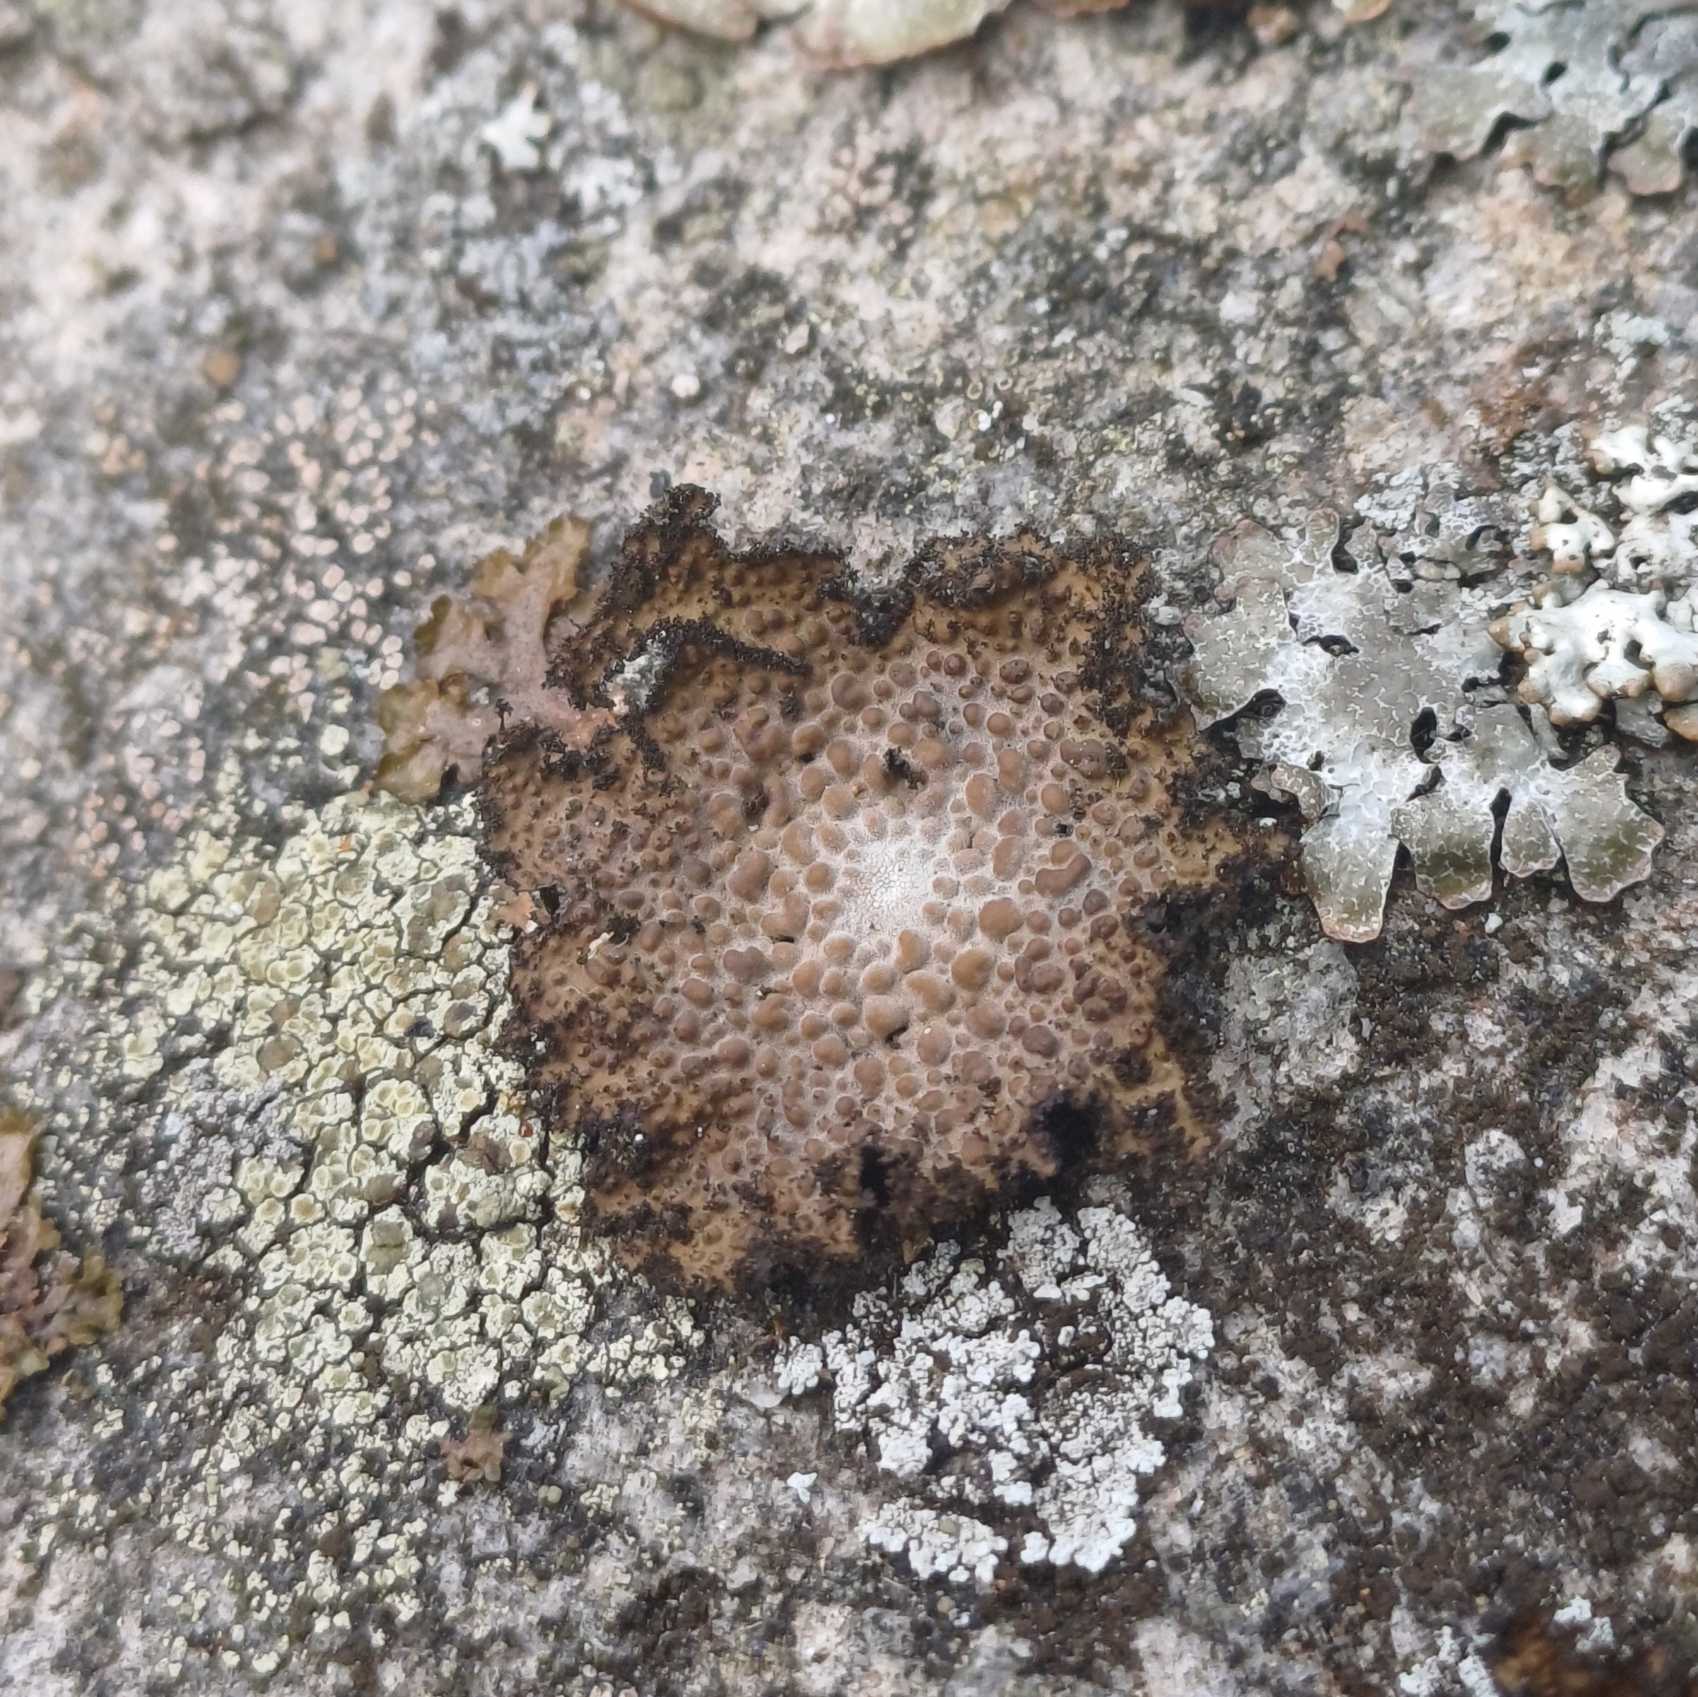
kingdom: Fungi
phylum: Ascomycota
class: Lecanoromycetes
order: Umbilicariales
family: Umbilicariaceae
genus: Lasallia
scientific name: Lasallia pustulata
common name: Buklet navlelav
